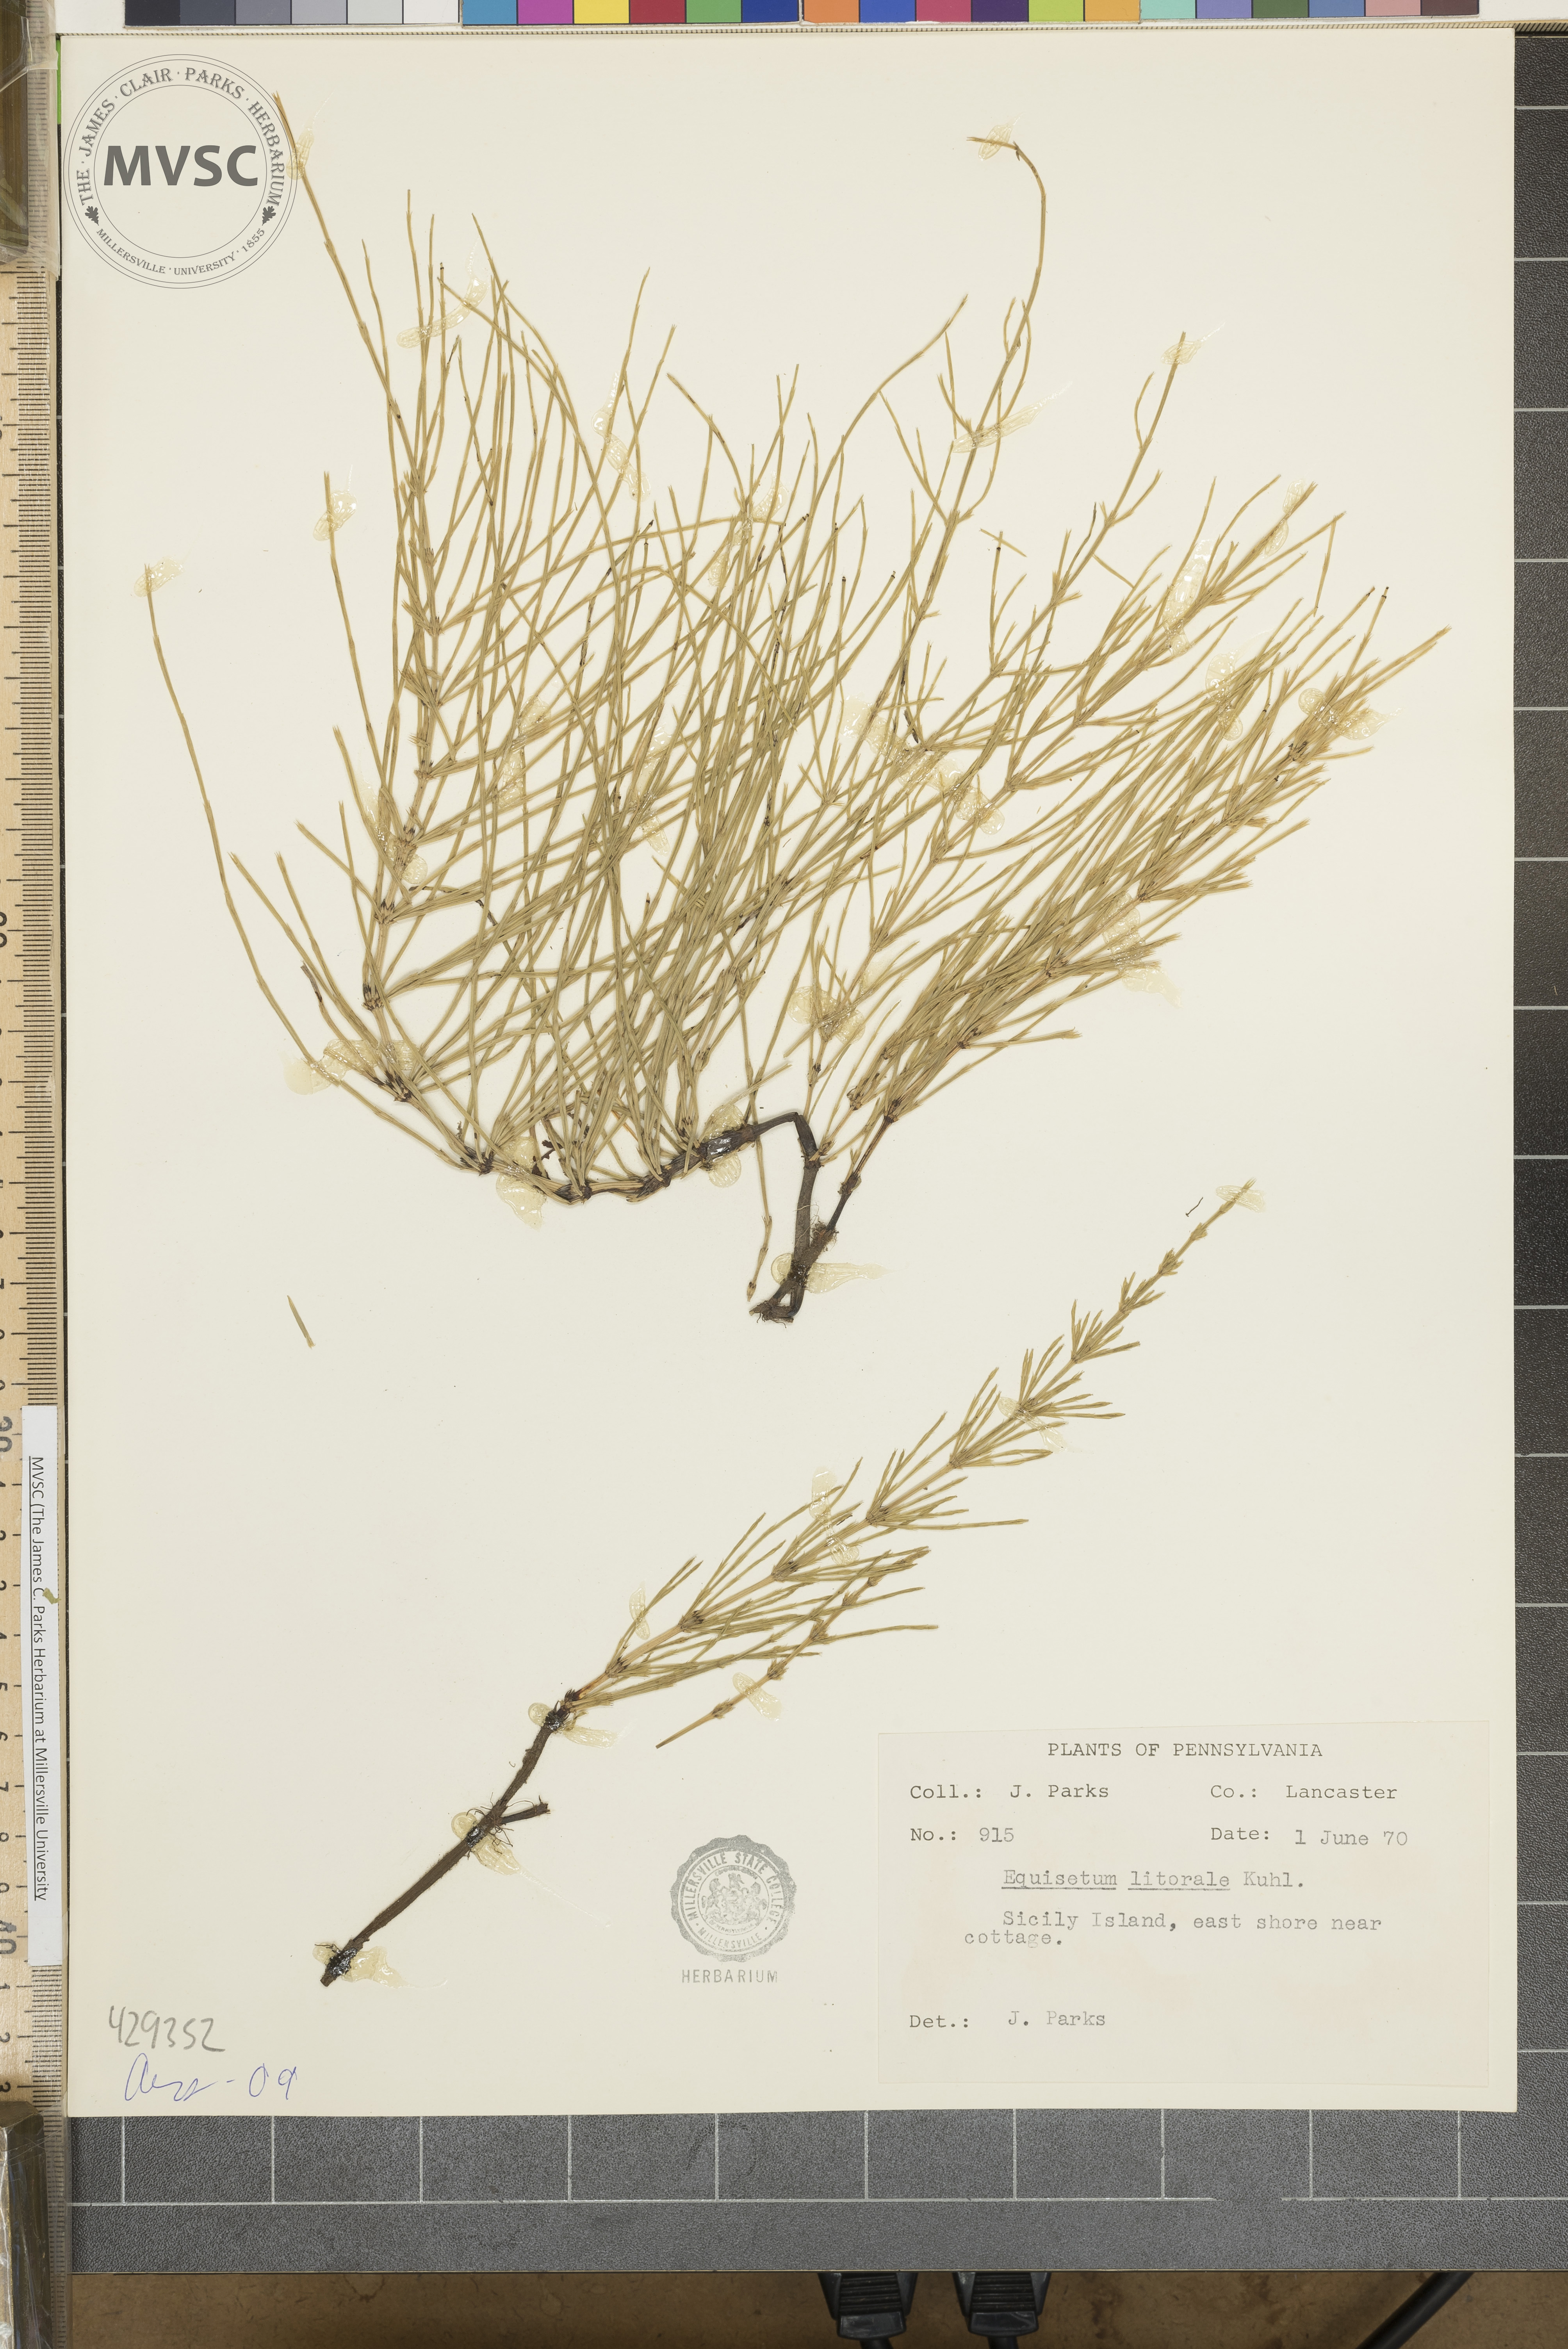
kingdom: Plantae
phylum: Tracheophyta
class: Polypodiopsida
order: Equisetales
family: Equisetaceae
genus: Equisetum
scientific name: Equisetum litorale
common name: Littoral horsetail
